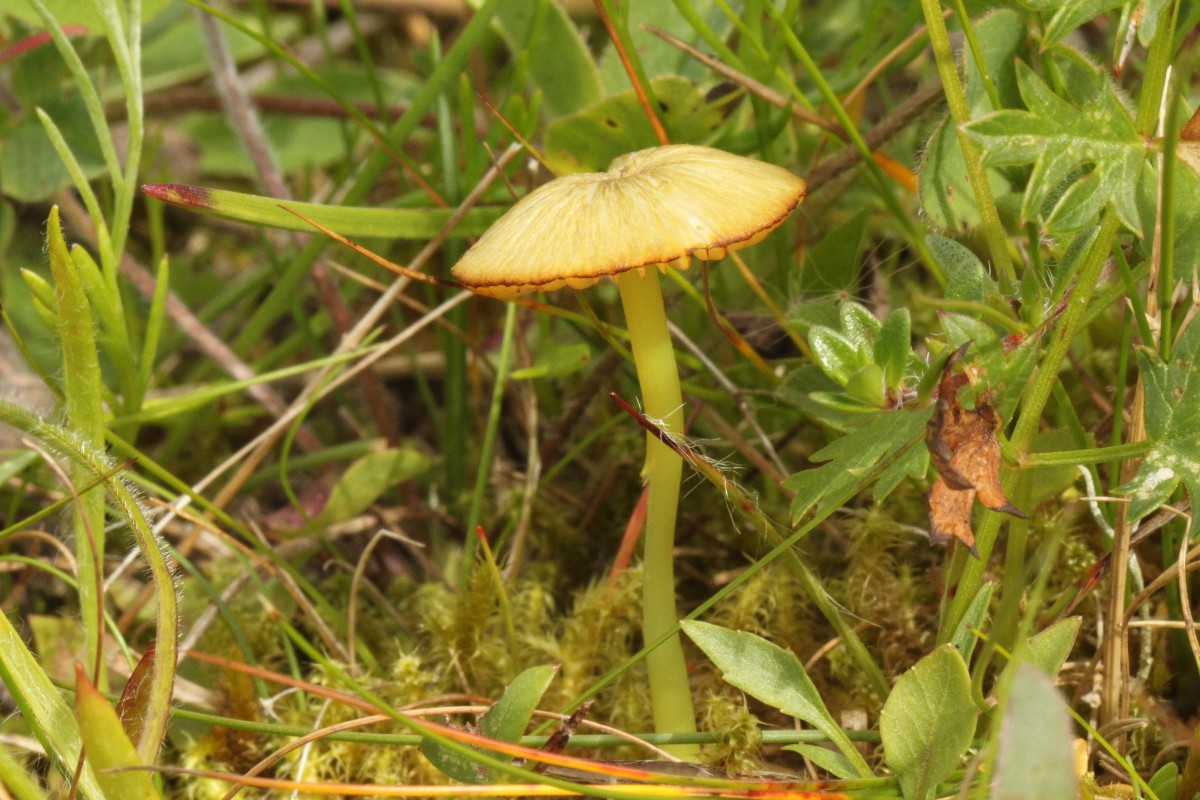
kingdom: Fungi
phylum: Basidiomycota
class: Agaricomycetes
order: Agaricales
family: Entolomataceae
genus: Entoloma
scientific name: Entoloma incanum
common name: grøngul rødblad
